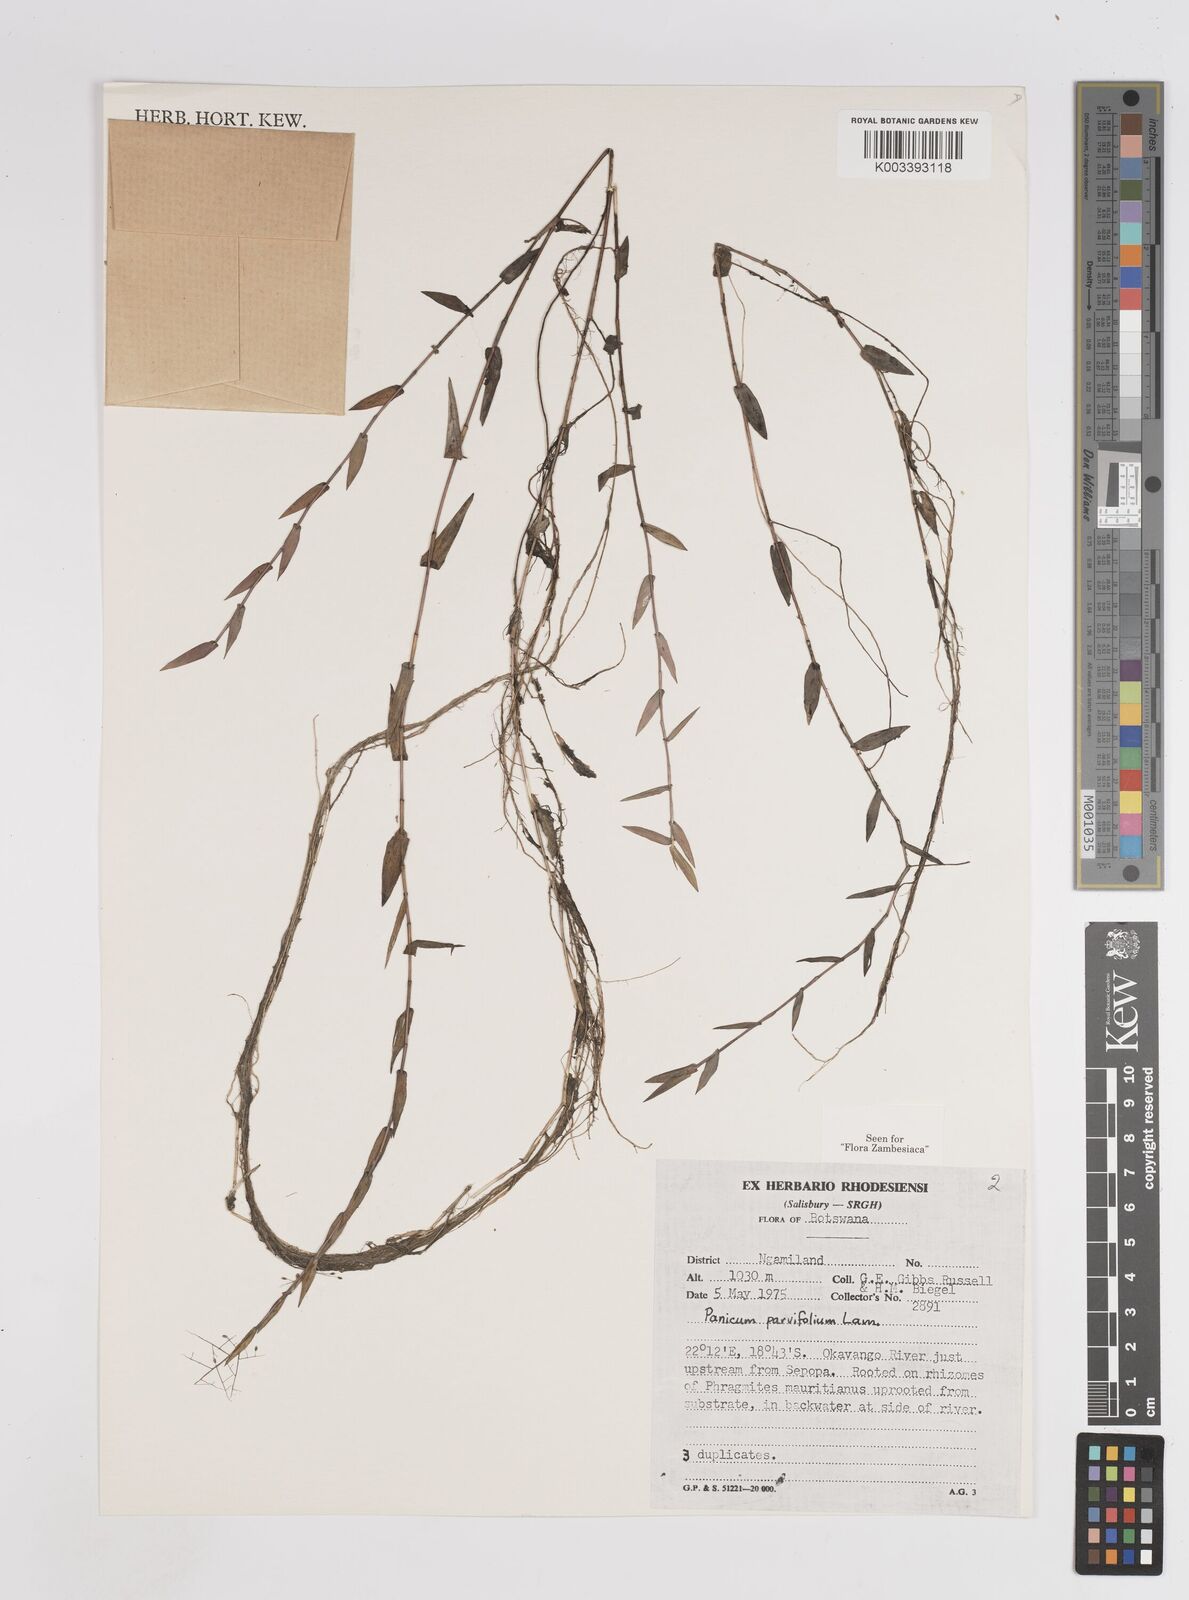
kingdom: Plantae
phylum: Tracheophyta
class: Liliopsida
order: Poales
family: Poaceae
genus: Trichanthecium
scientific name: Trichanthecium parvifolium
